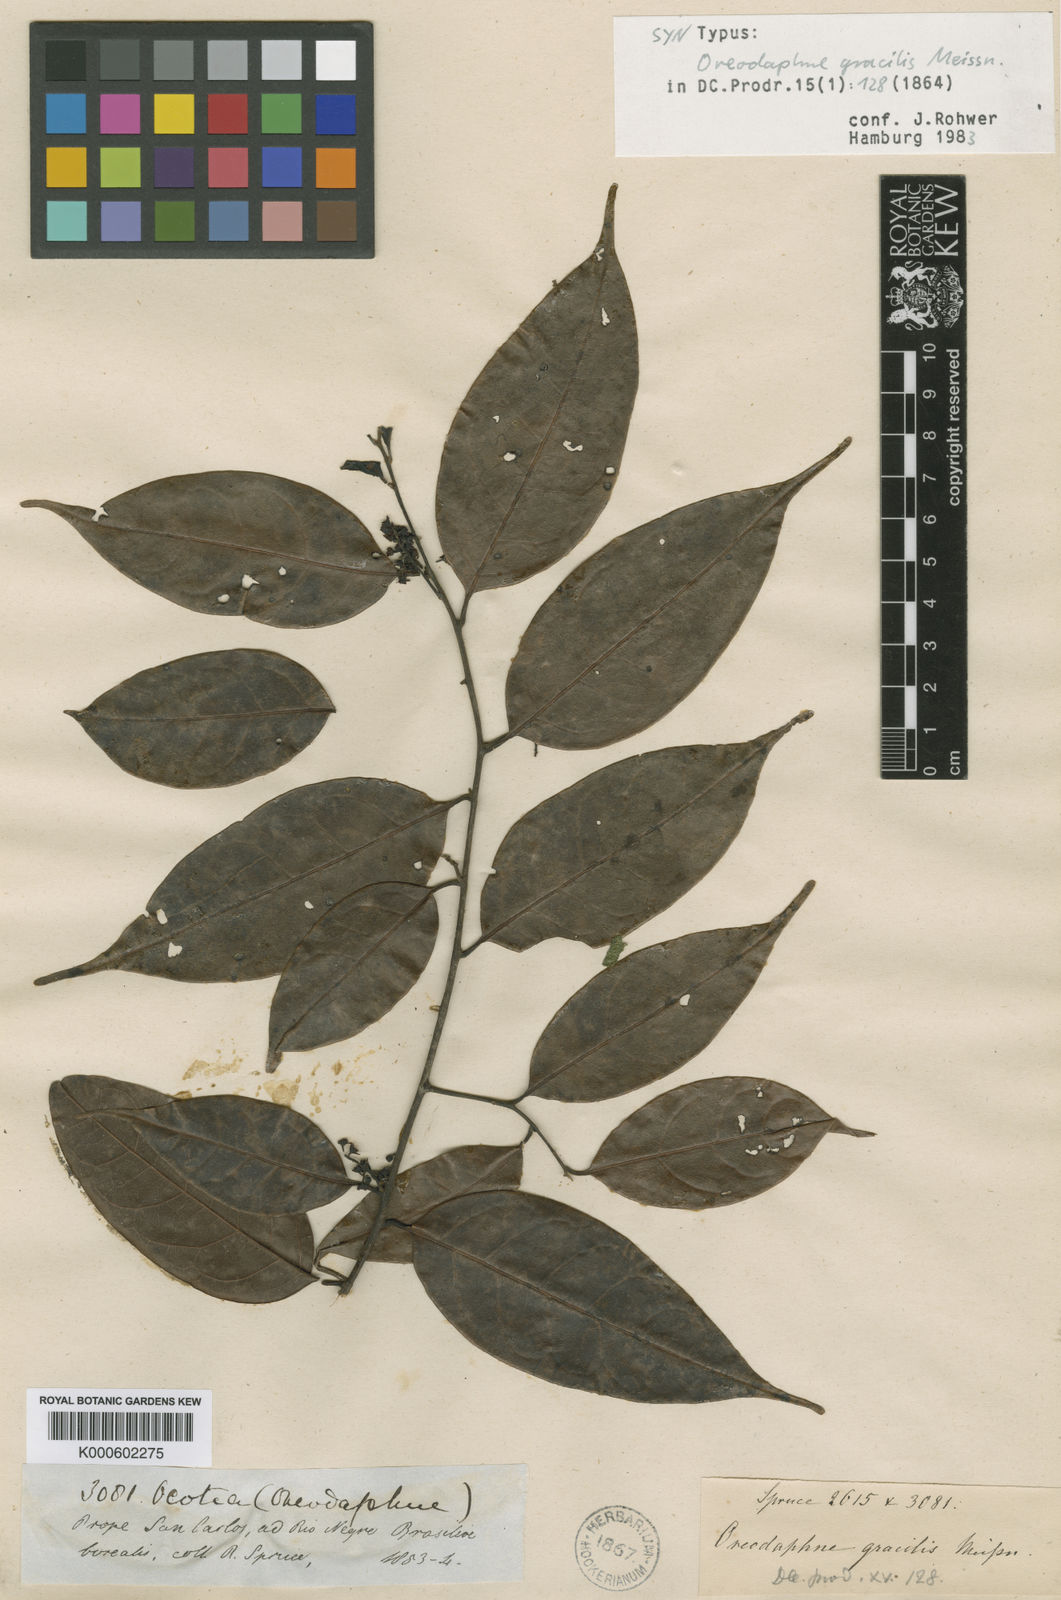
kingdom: Plantae
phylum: Tracheophyta
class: Magnoliopsida
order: Laurales
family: Lauraceae
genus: Ocotea
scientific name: Ocotea gracilis
